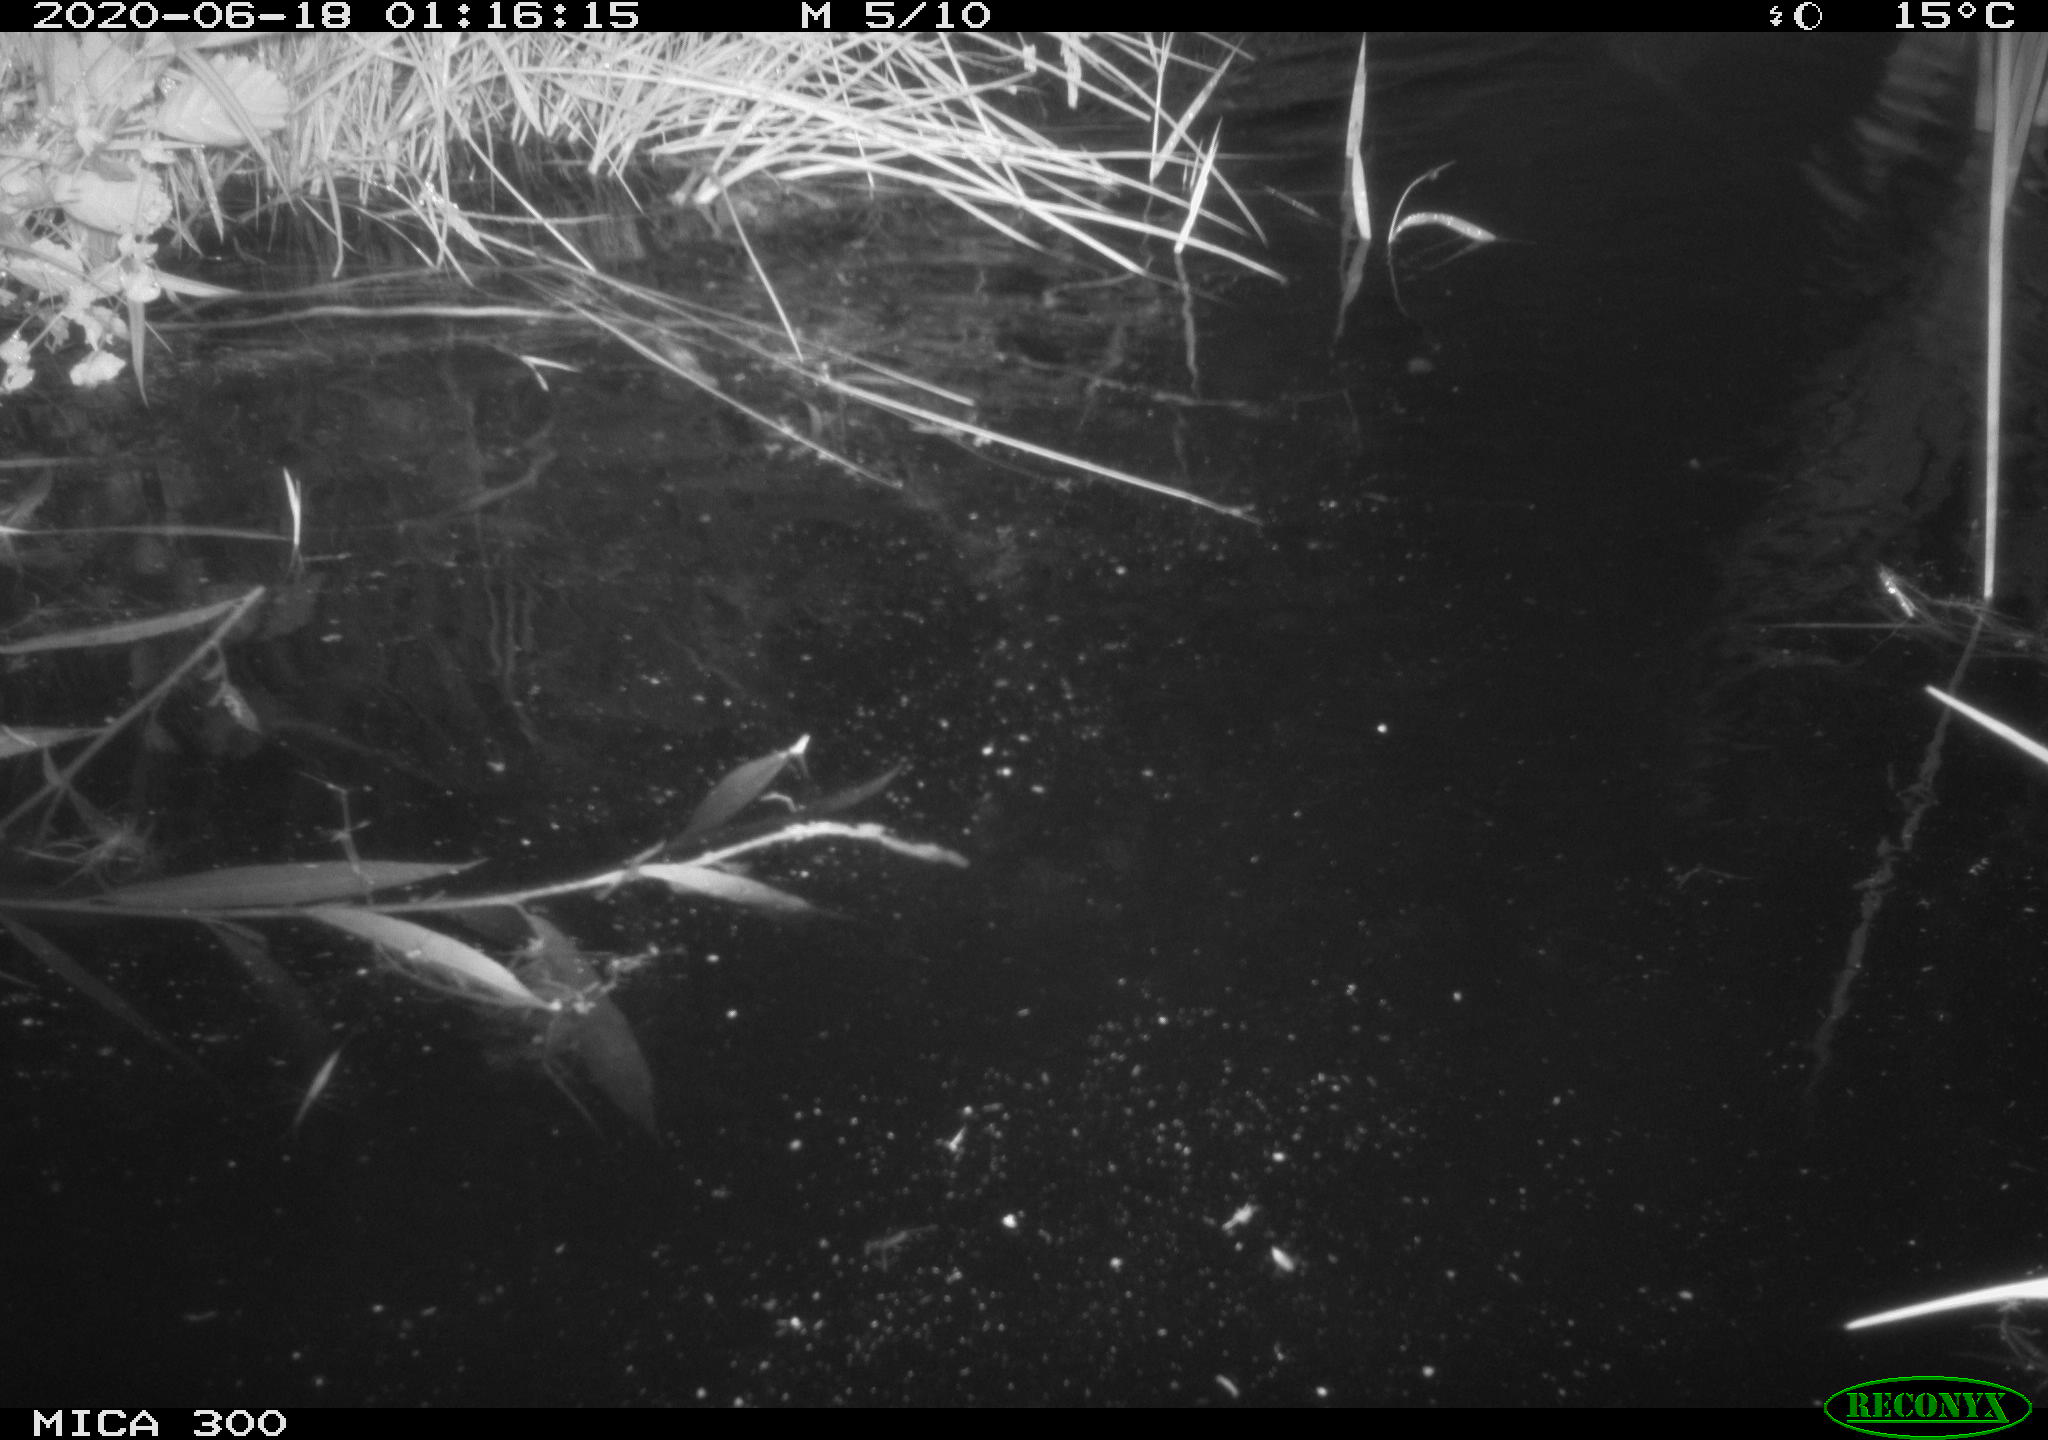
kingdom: Animalia
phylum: Chordata
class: Mammalia
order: Rodentia
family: Myocastoridae
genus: Myocastor
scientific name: Myocastor coypus
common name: Coypu
